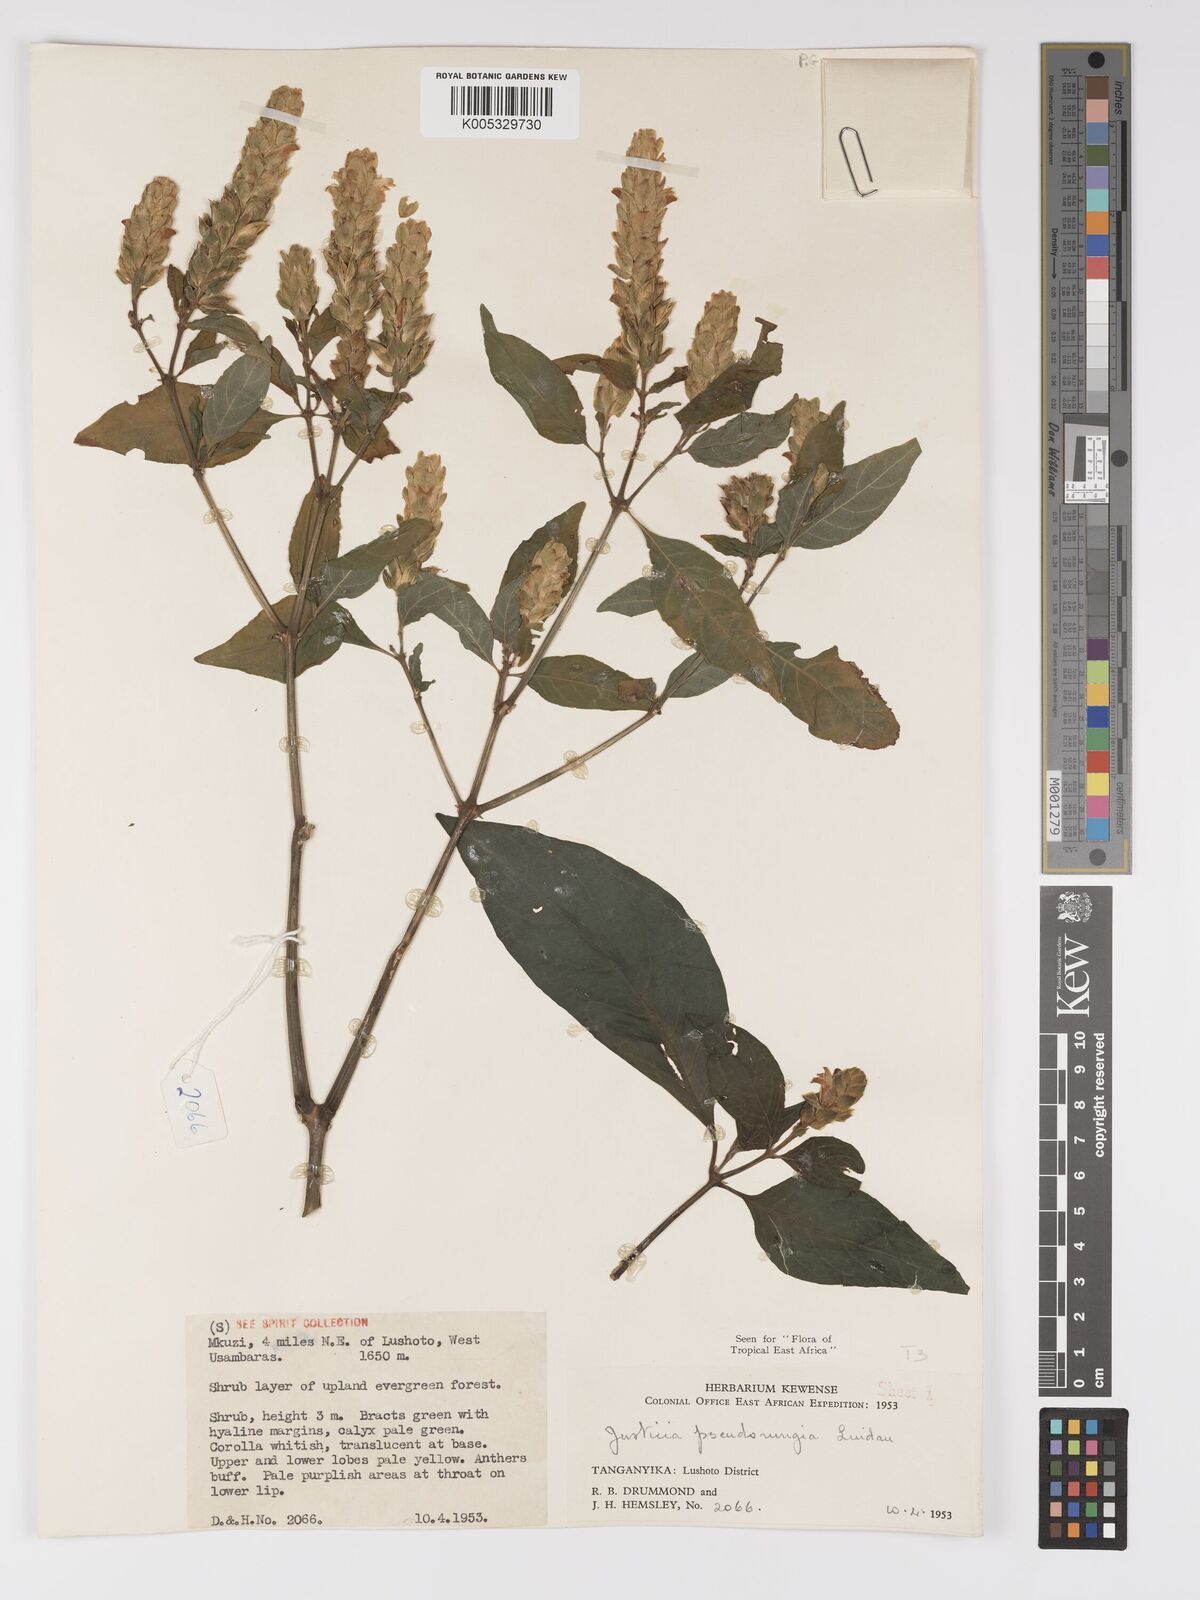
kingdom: Plantae
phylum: Tracheophyta
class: Magnoliopsida
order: Lamiales
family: Acanthaceae
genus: Justicia
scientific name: Justicia pseudorungia
